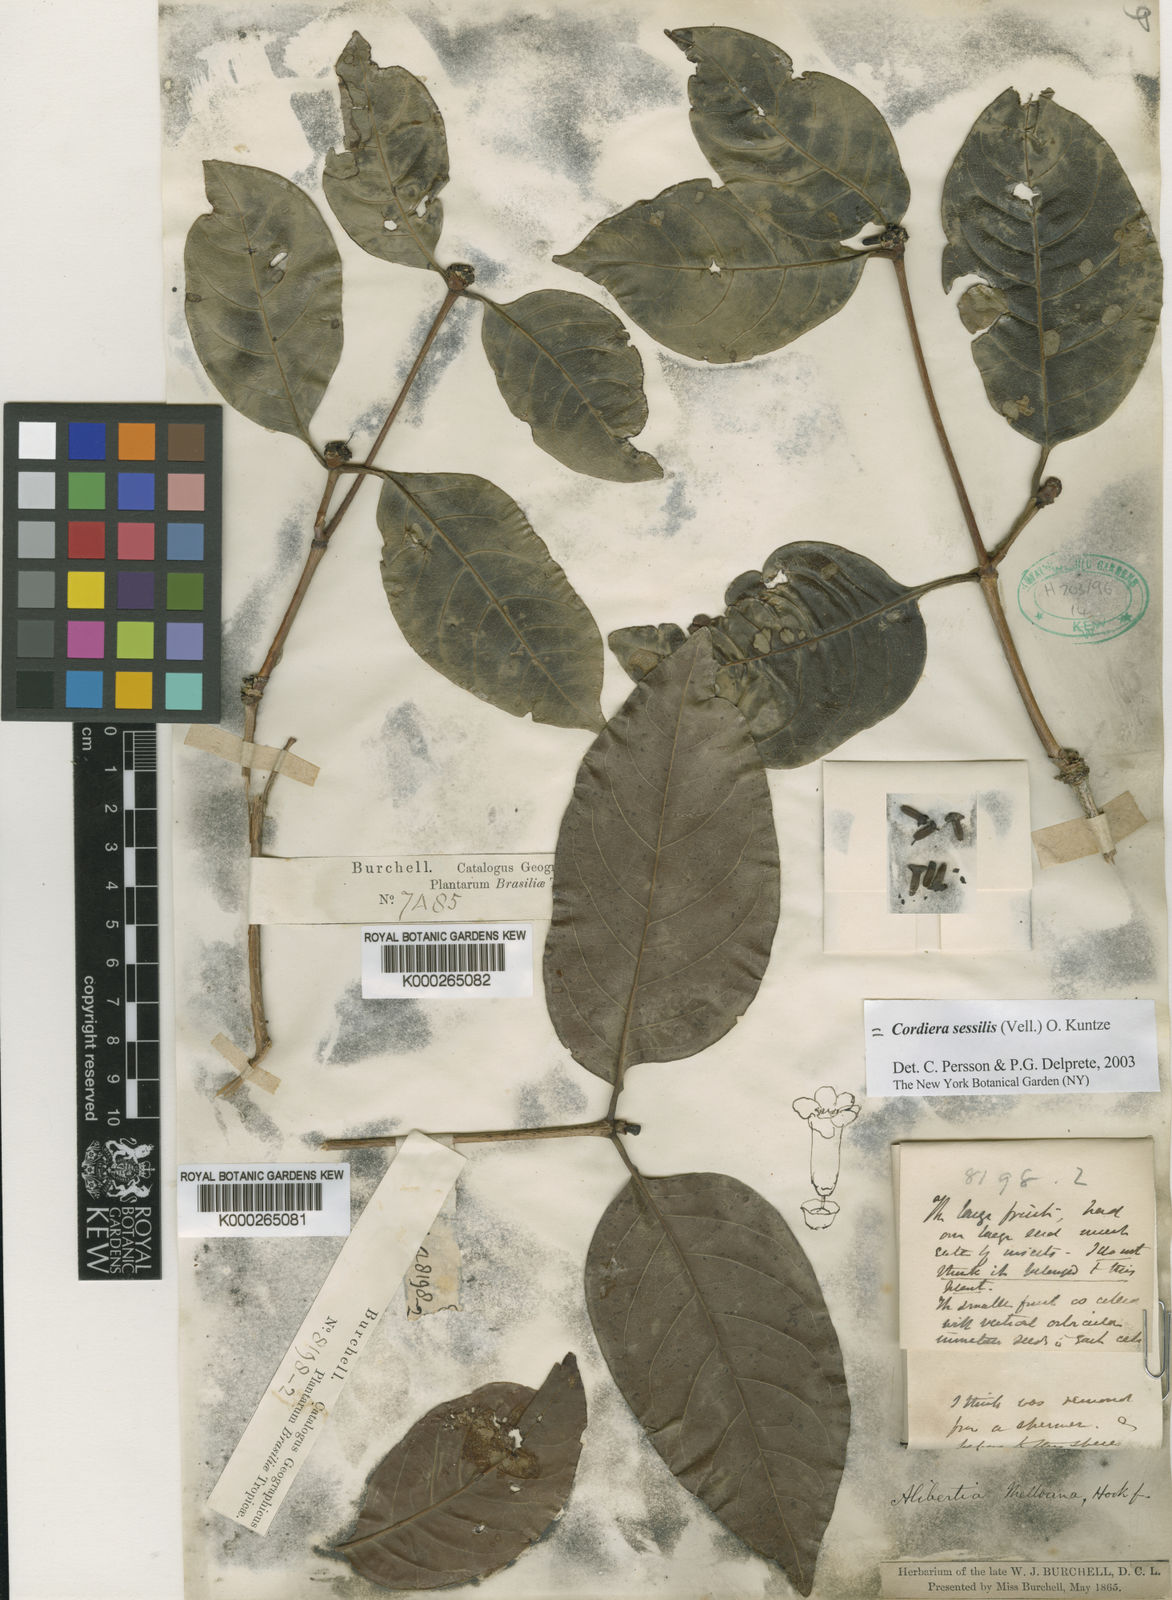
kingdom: Plantae
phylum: Tracheophyta
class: Magnoliopsida
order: Gentianales
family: Rubiaceae
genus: Cordiera
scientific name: Cordiera sessilis
